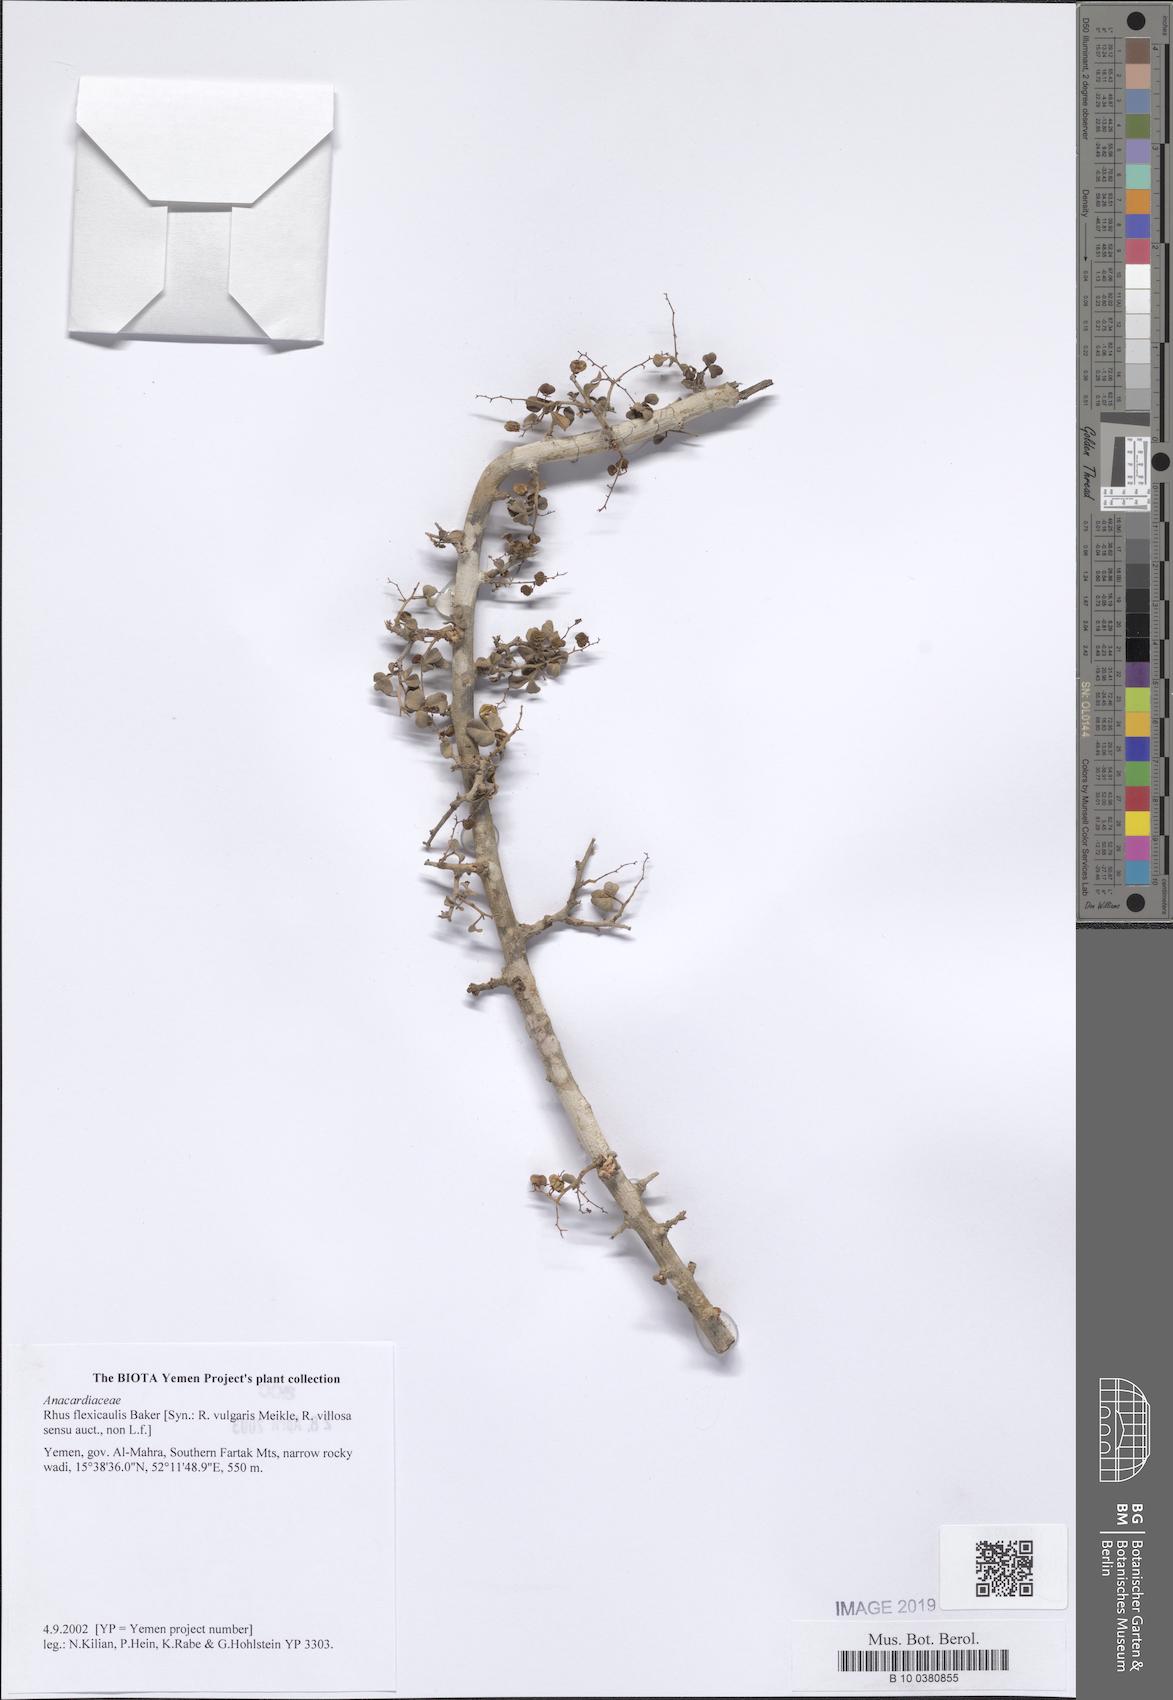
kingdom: Plantae
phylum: Tracheophyta
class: Magnoliopsida
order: Sapindales
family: Anacardiaceae
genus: Searsia
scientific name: Searsia flexicaulis
